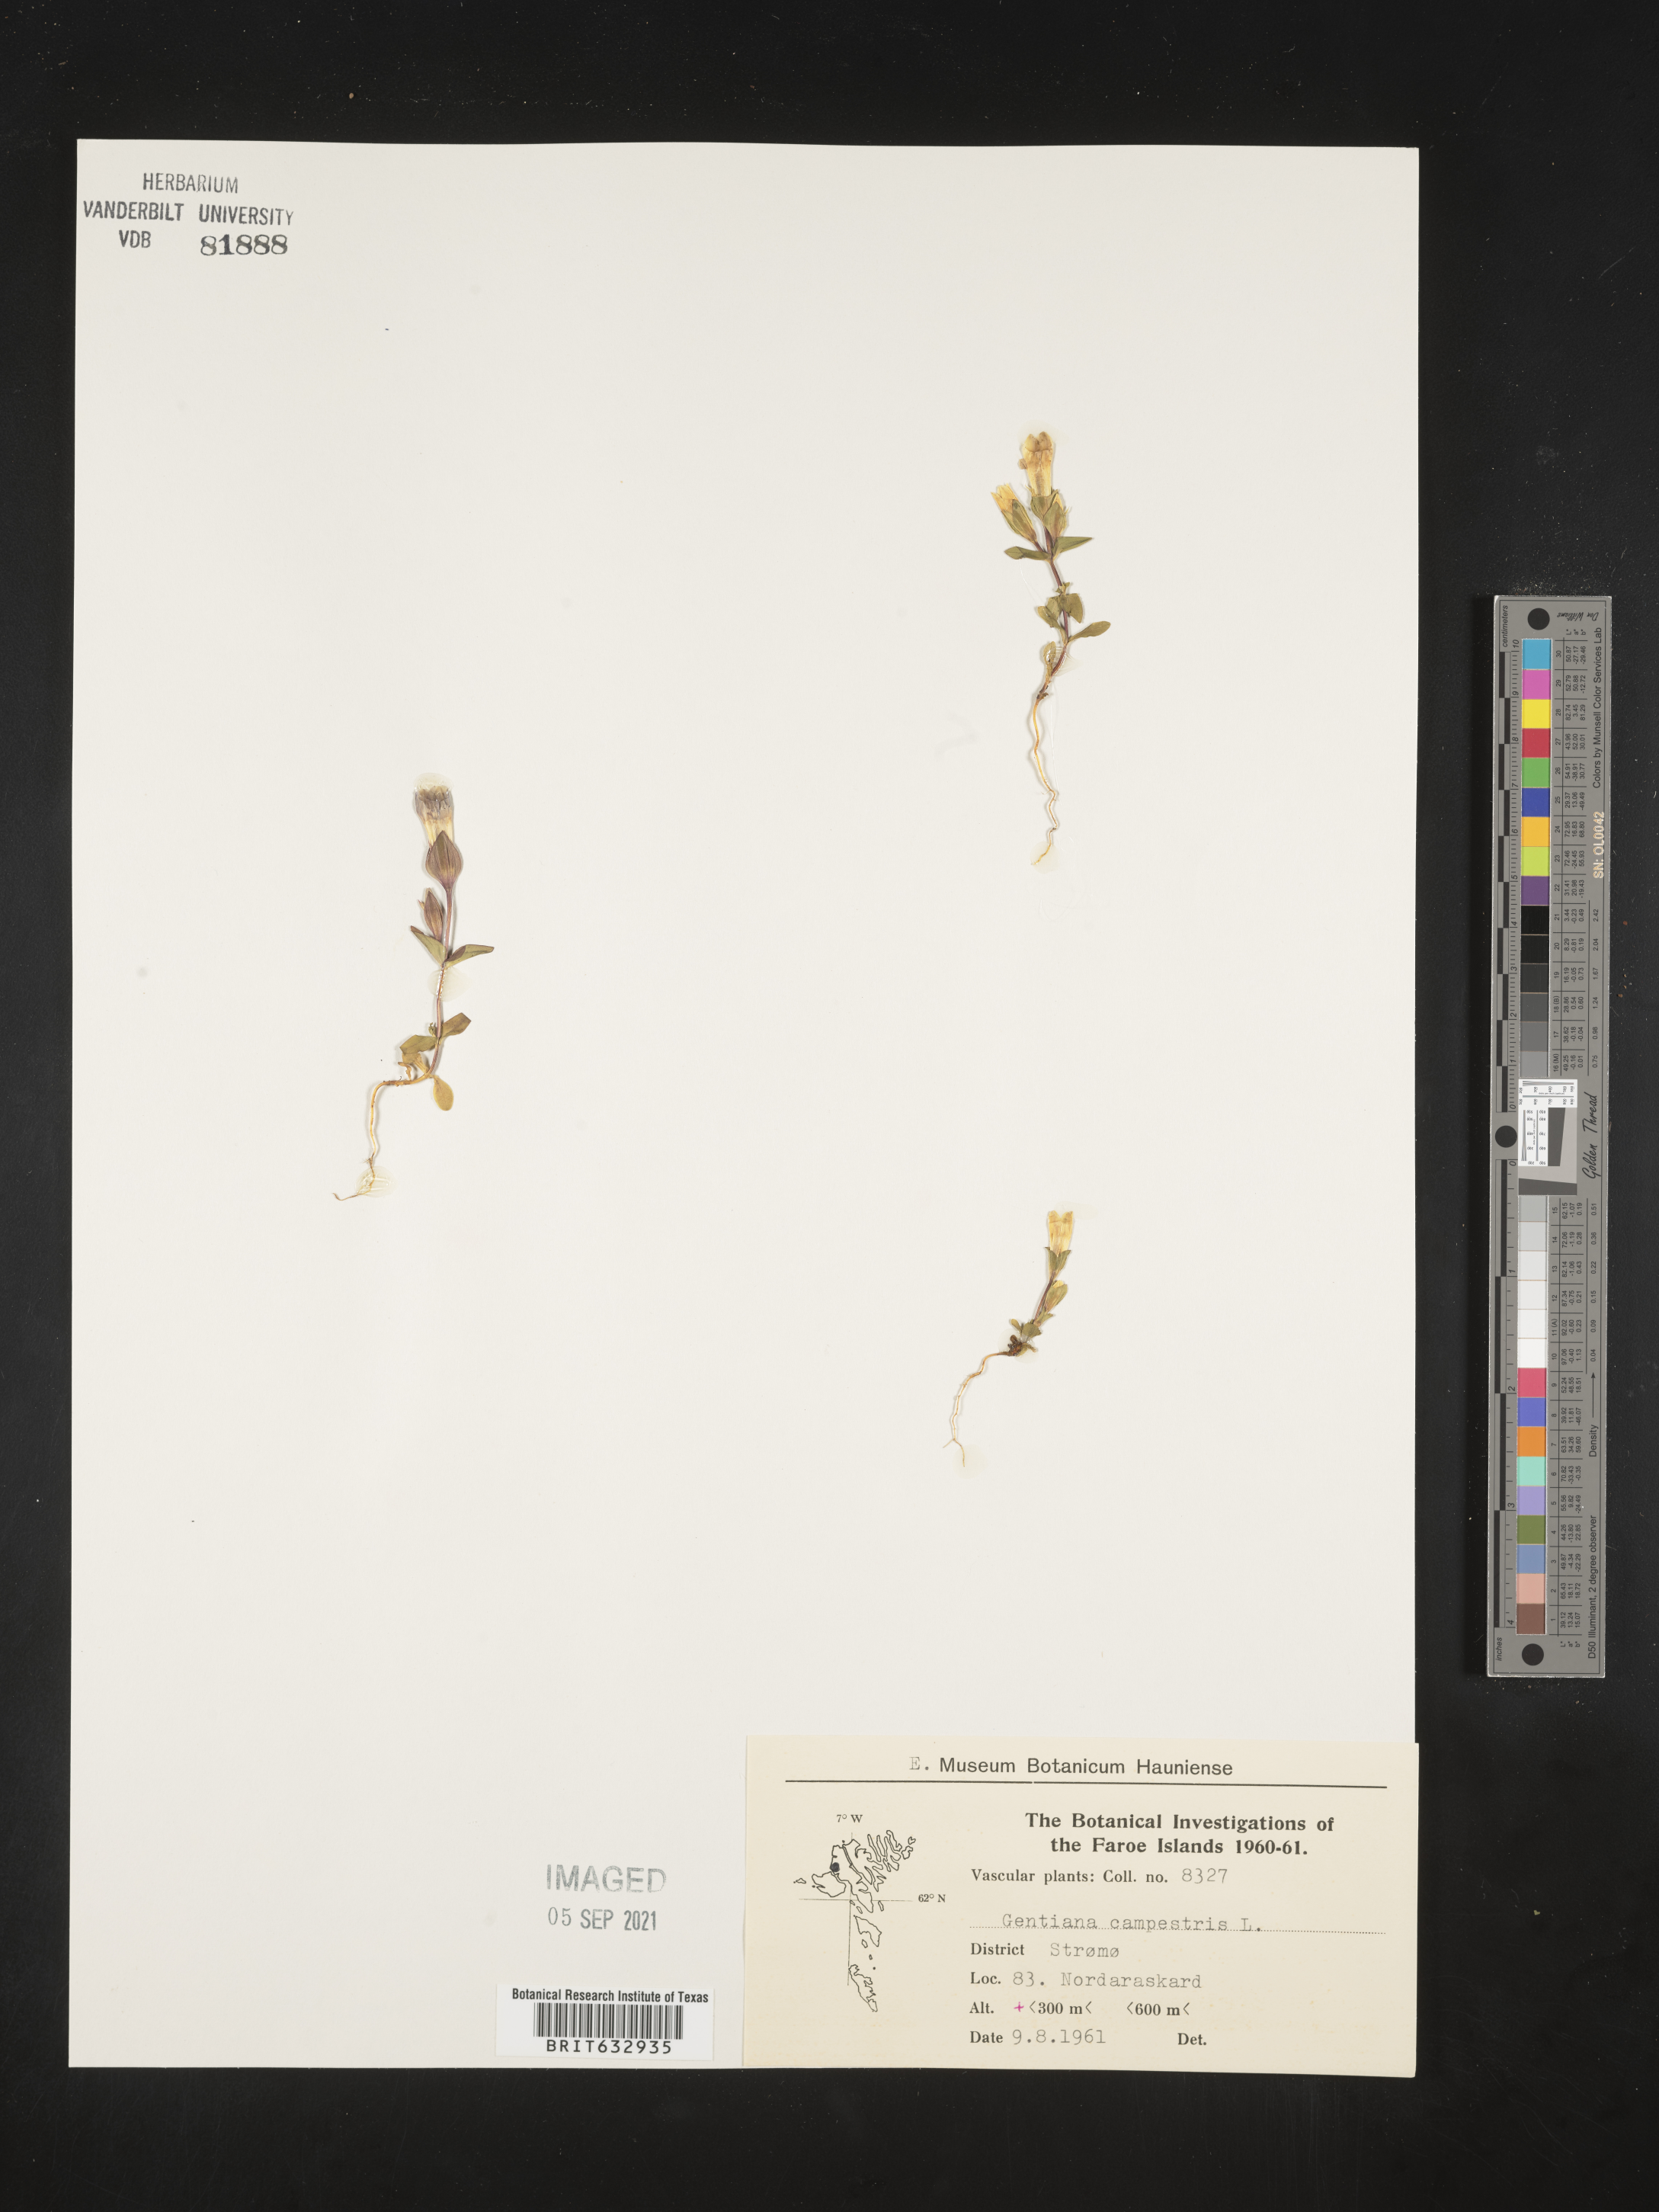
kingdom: Plantae
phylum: Tracheophyta
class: Magnoliopsida
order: Gentianales
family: Gentianaceae
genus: Gentiana
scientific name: Gentiana
